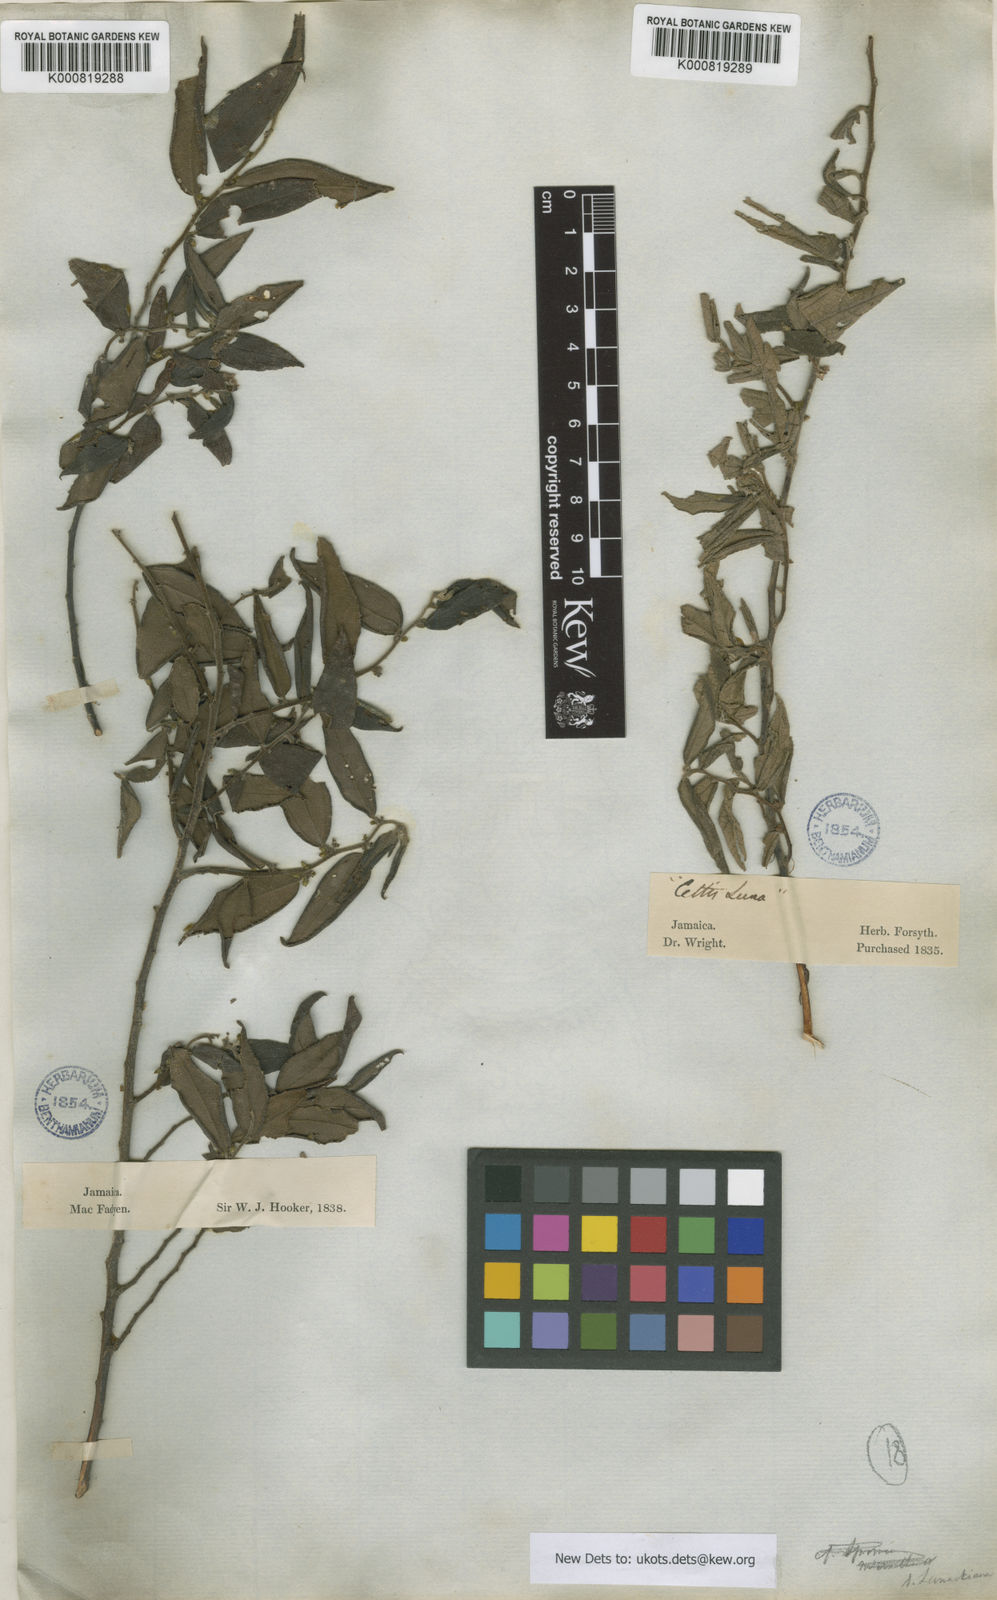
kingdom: Plantae
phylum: Tracheophyta
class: Magnoliopsida
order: Rosales
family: Cannabaceae
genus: Trema
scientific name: Trema lamarckianum
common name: Lamarck's trema
